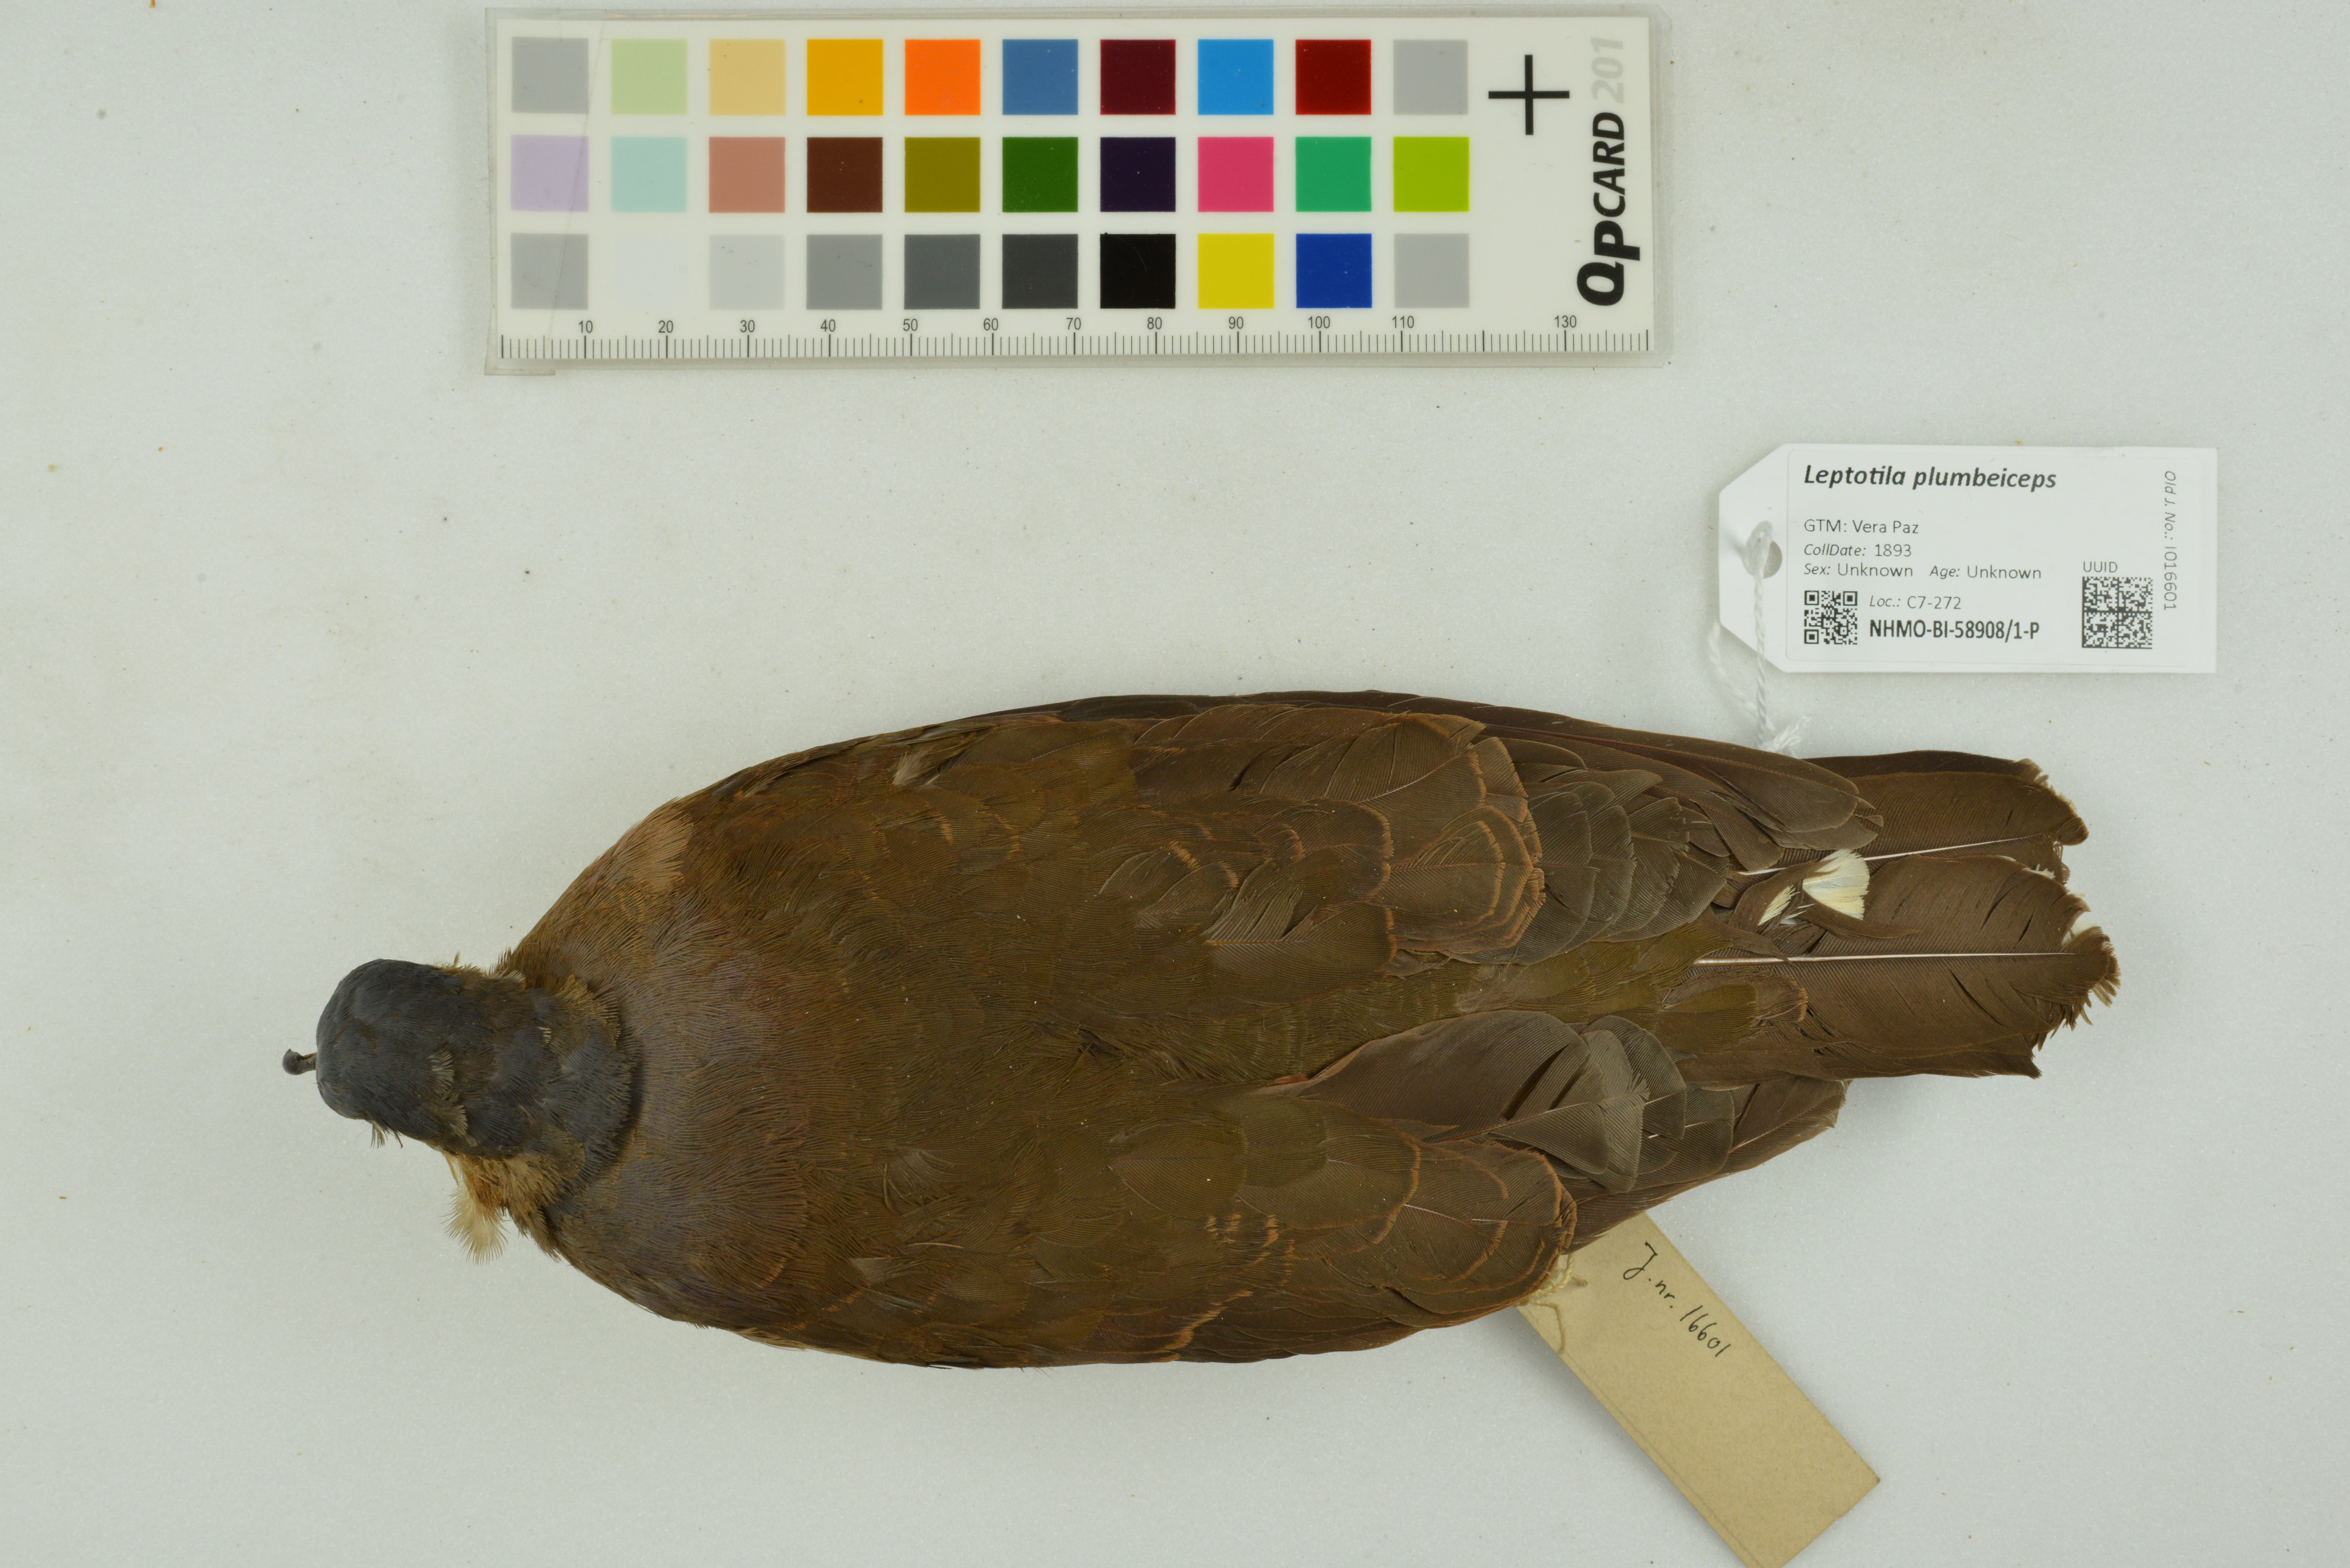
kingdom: Animalia
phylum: Chordata
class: Aves
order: Columbiformes
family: Columbidae
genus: Leptotila
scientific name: Leptotila plumbeiceps
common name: Grey-headed dove
